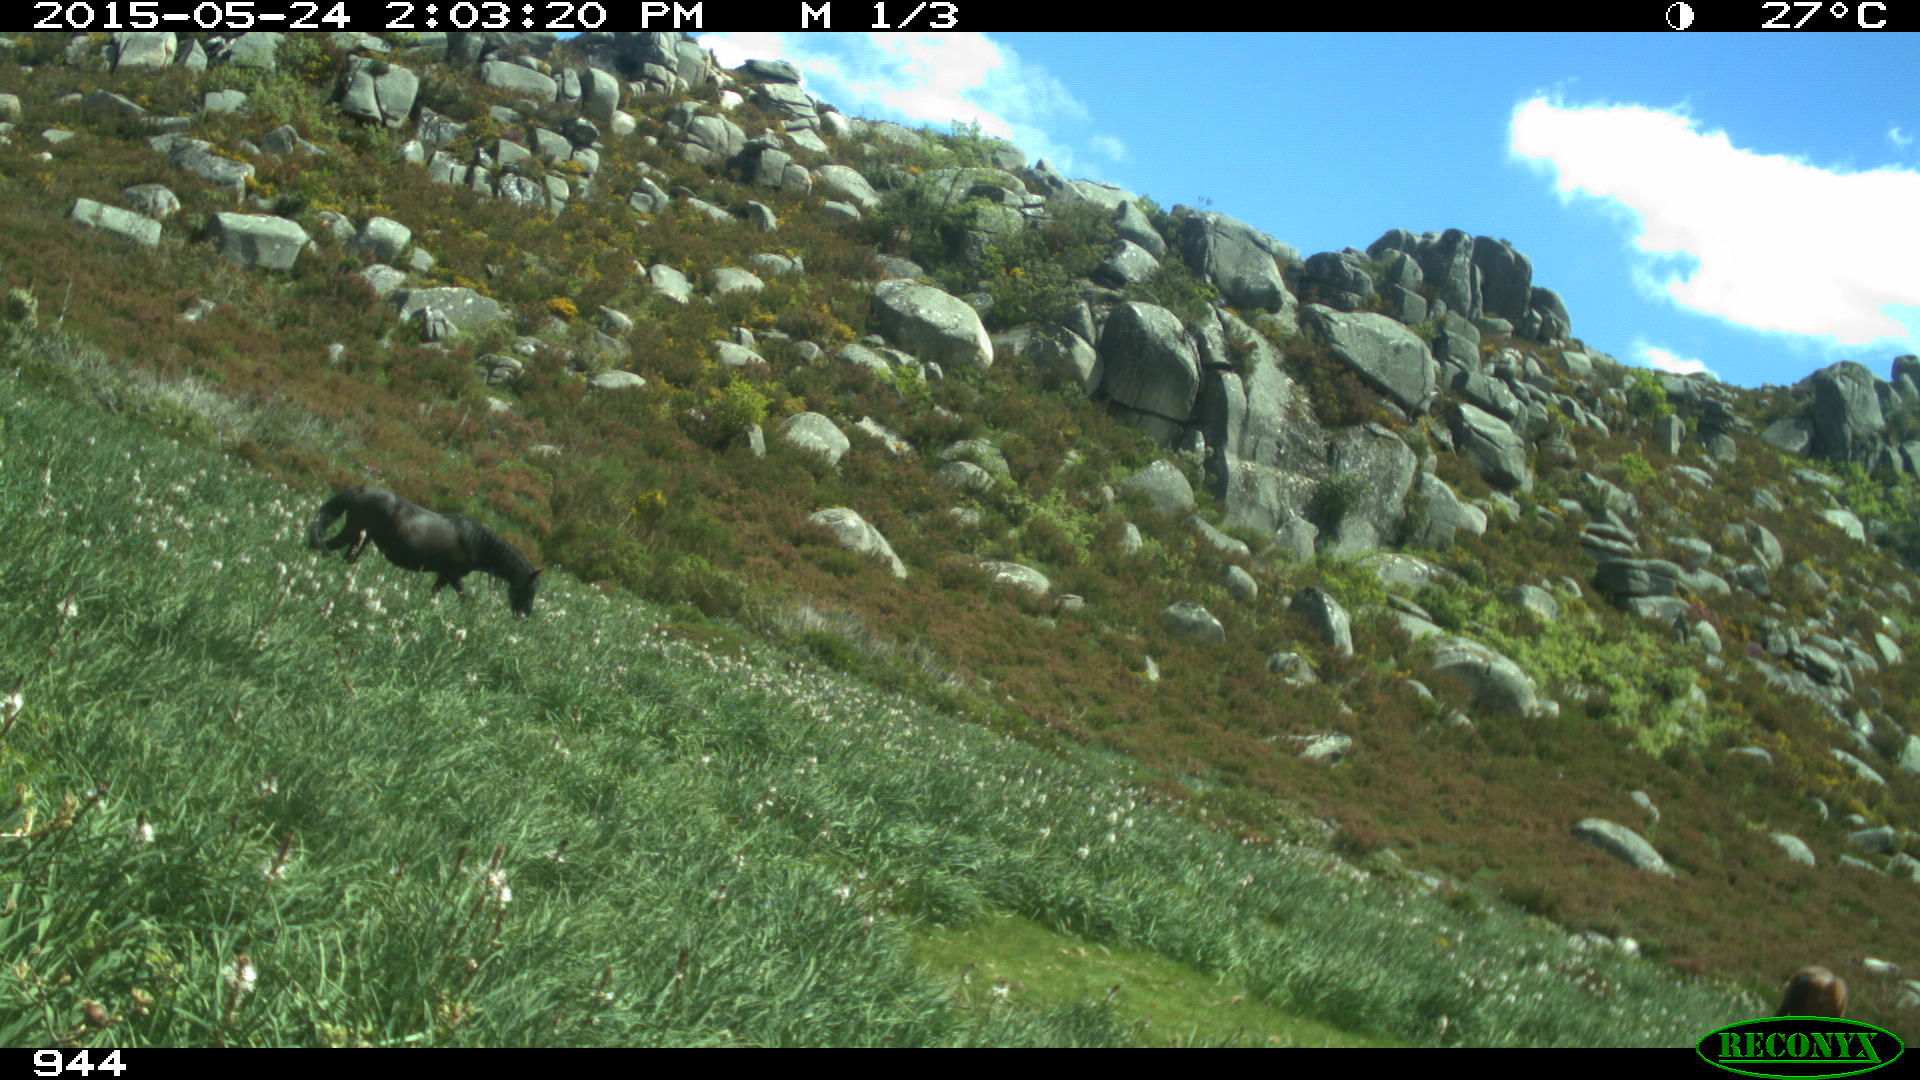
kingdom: Animalia
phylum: Chordata
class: Mammalia
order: Perissodactyla
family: Equidae
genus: Equus
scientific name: Equus caballus
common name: Horse
